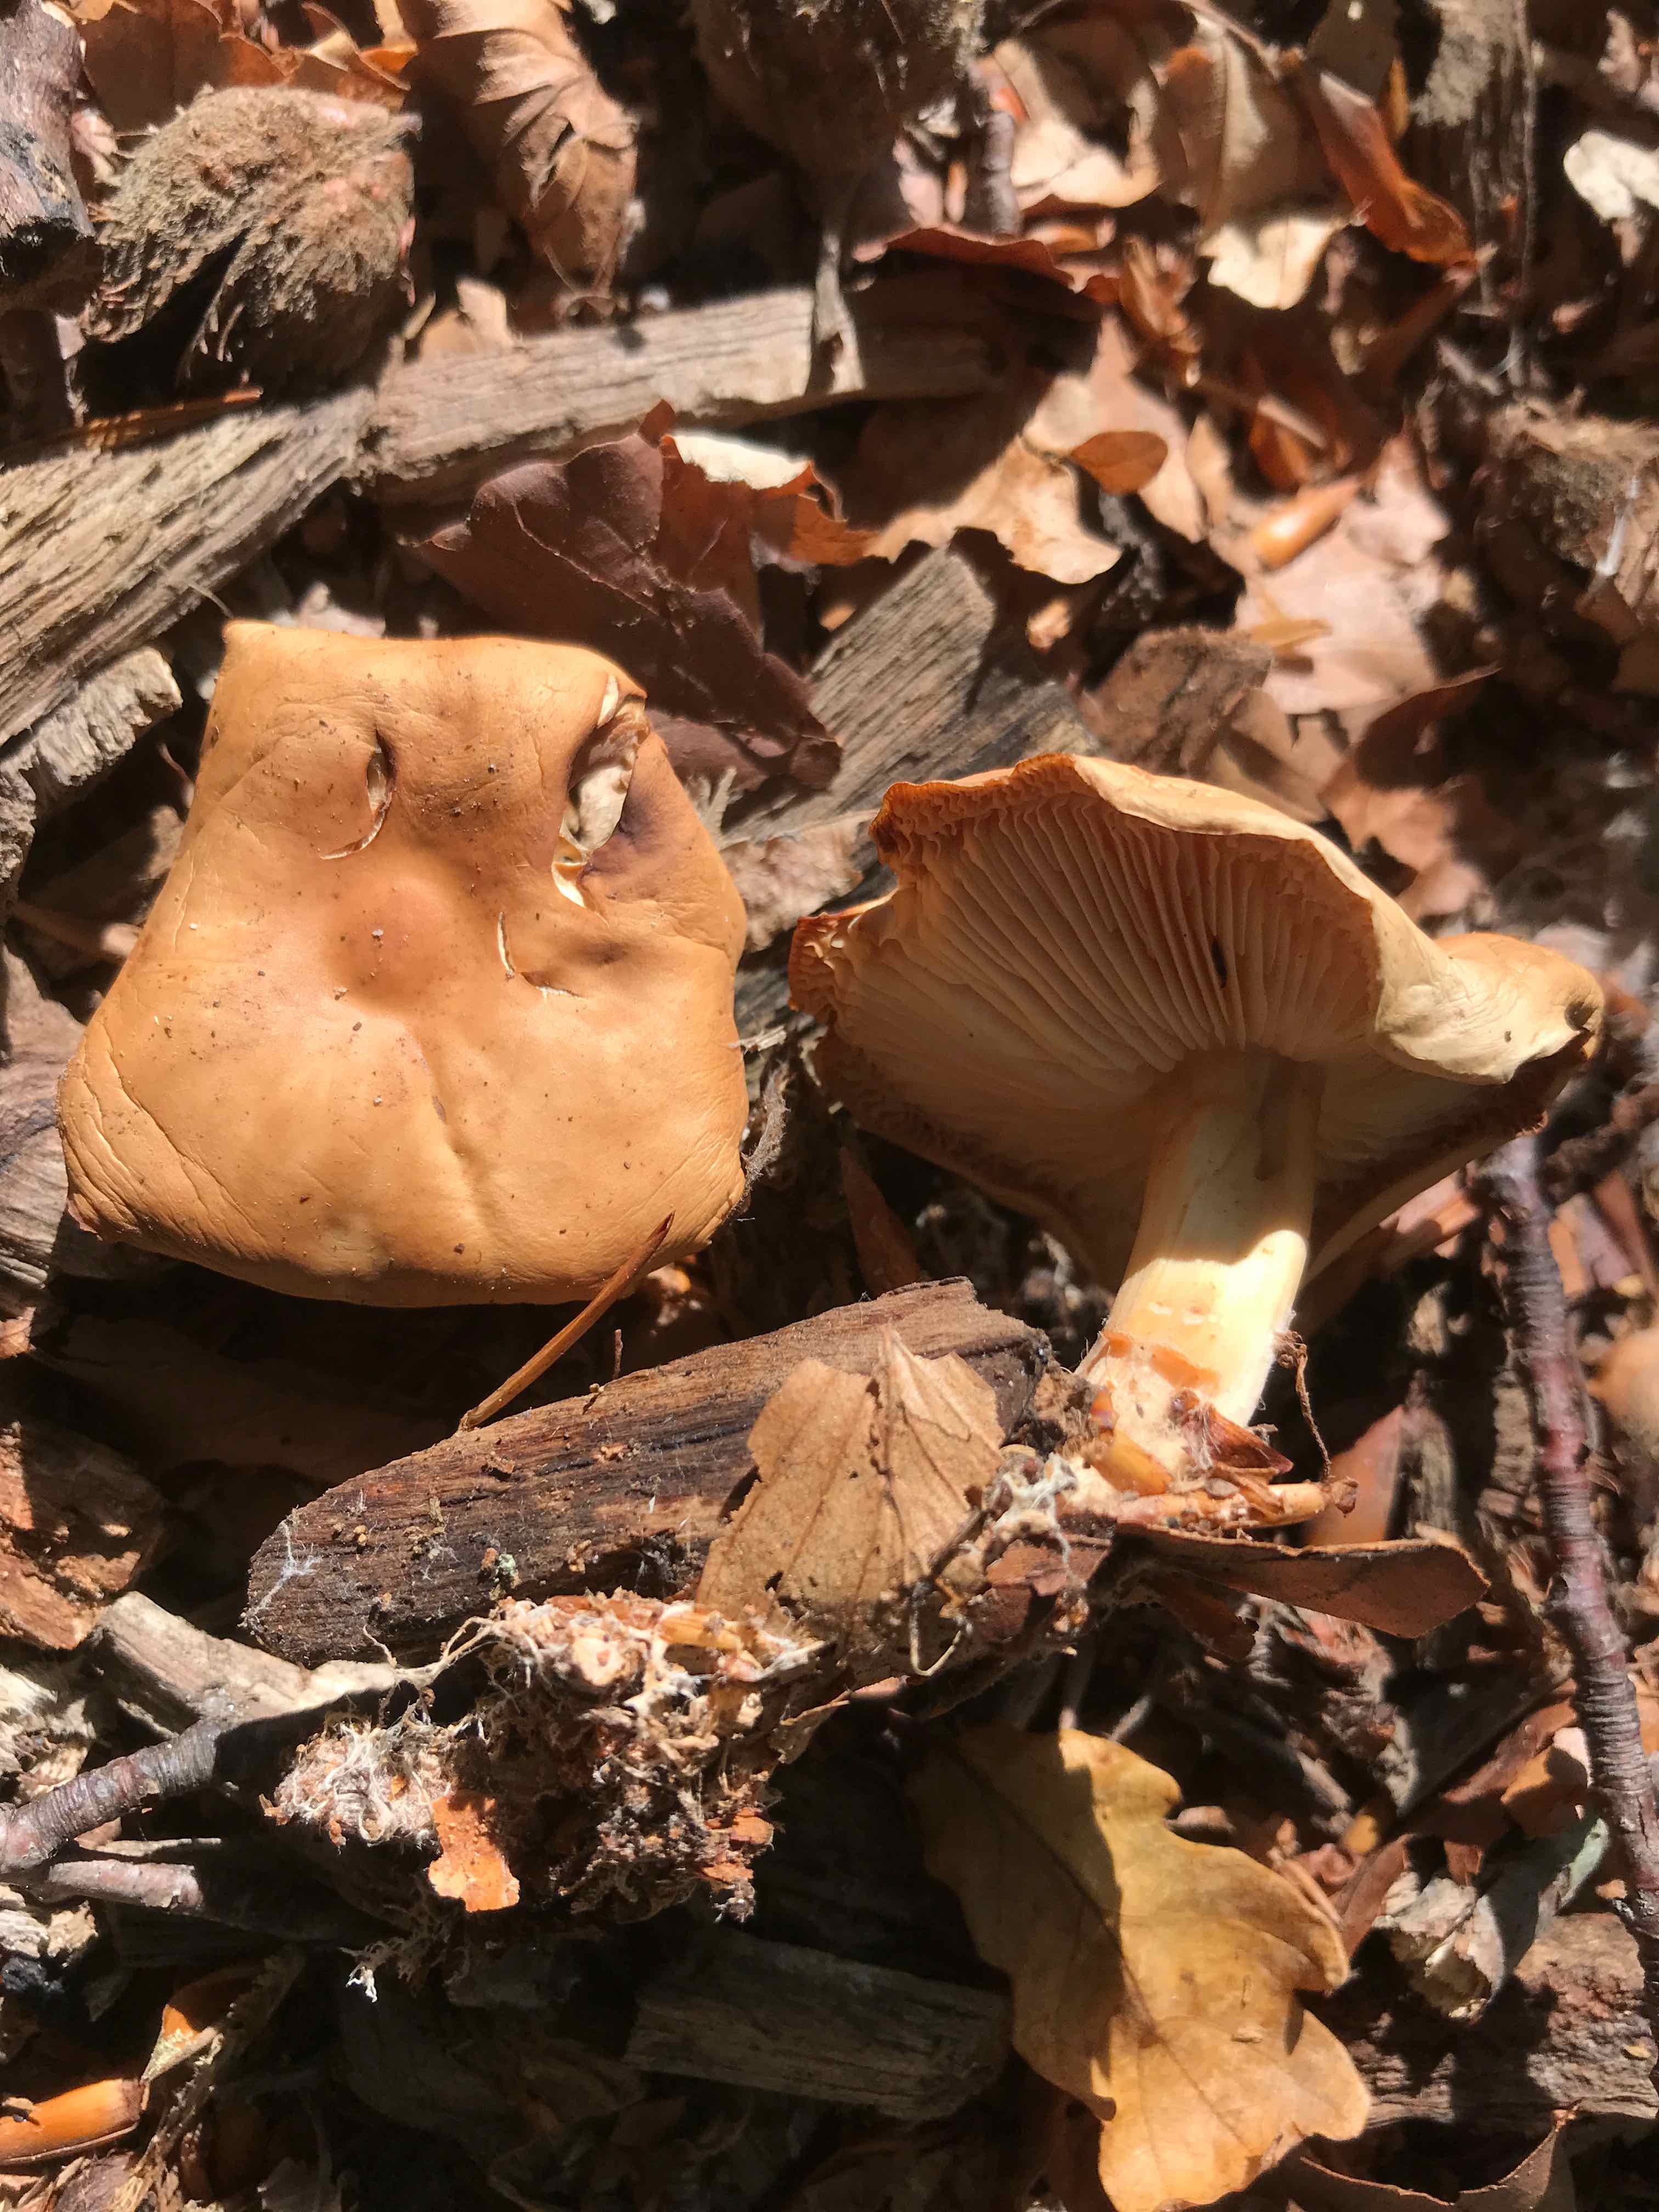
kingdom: Fungi
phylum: Basidiomycota
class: Agaricomycetes
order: Agaricales
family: Omphalotaceae
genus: Gymnopus
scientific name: Gymnopus dryophilus
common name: løv-fladhat
